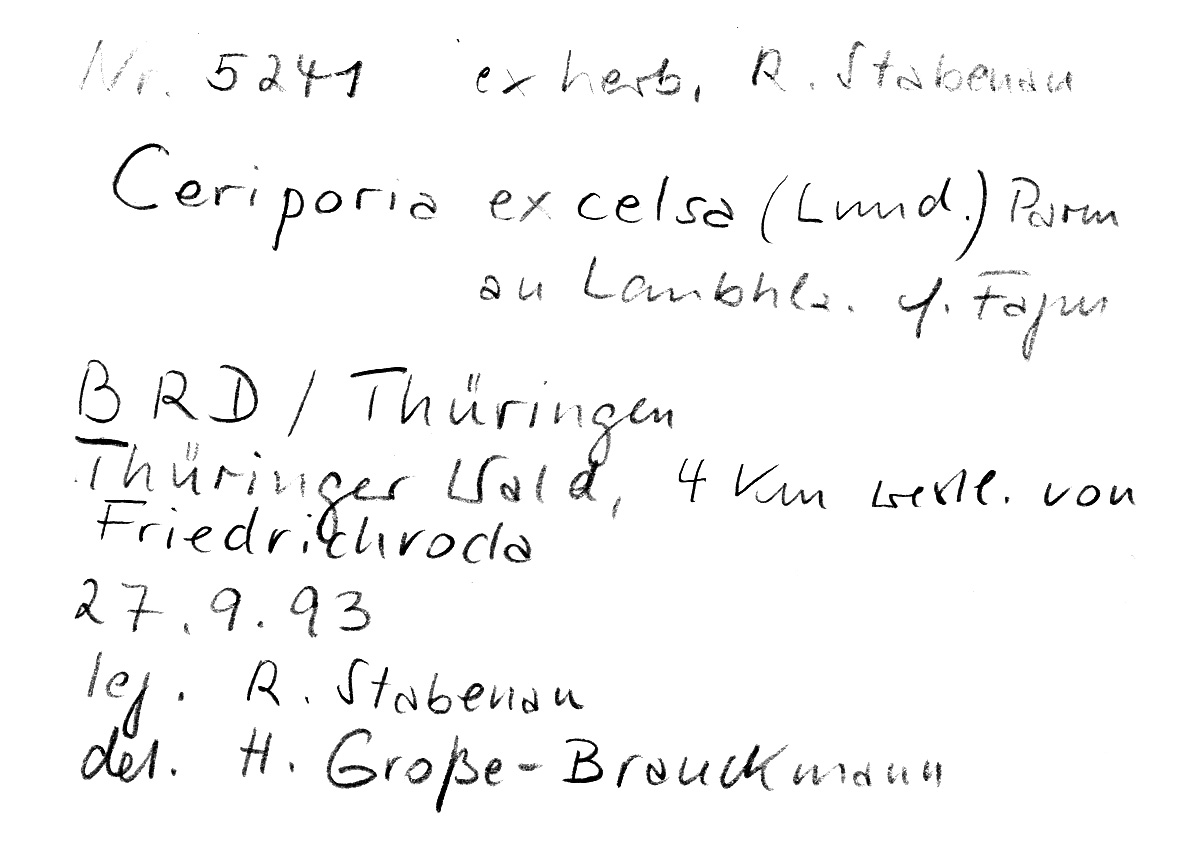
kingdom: Fungi
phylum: Basidiomycota
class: Agaricomycetes
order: Polyporales
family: Irpicaceae
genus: Ceriporia
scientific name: Ceriporia excelsa
